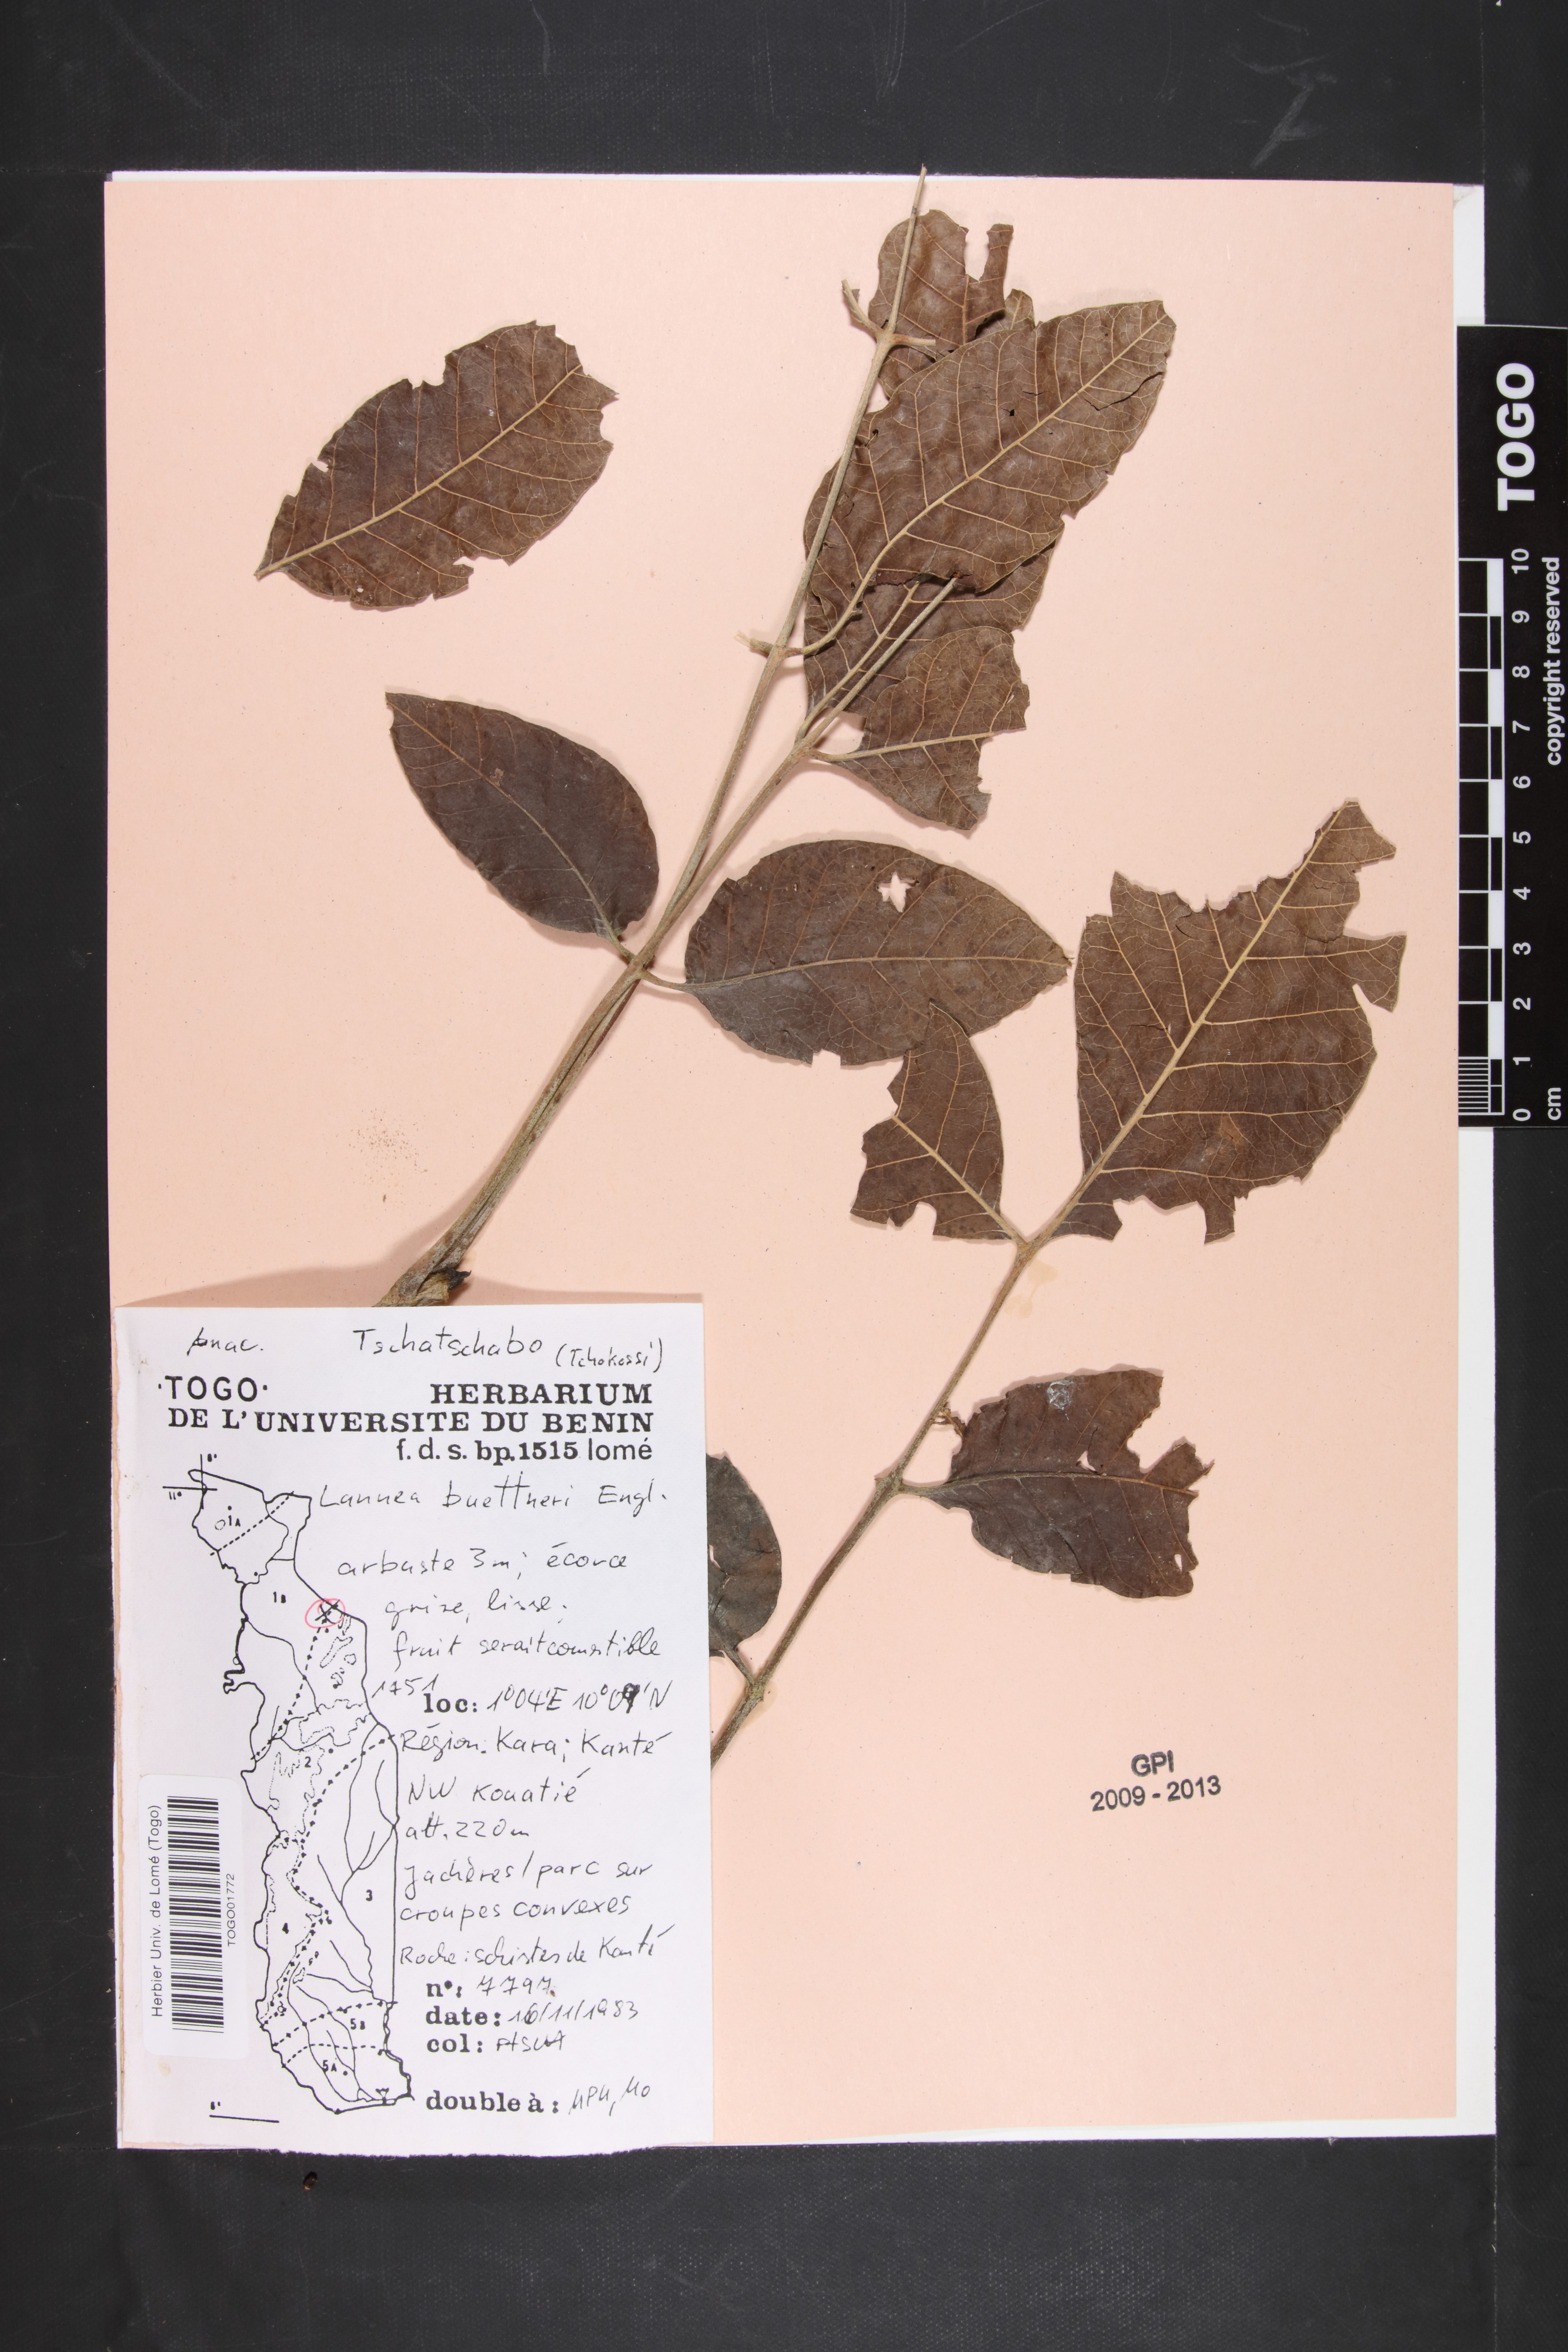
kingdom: Plantae
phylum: Tracheophyta
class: Magnoliopsida
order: Sapindales
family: Anacardiaceae
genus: Lannea
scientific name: Lannea acida
